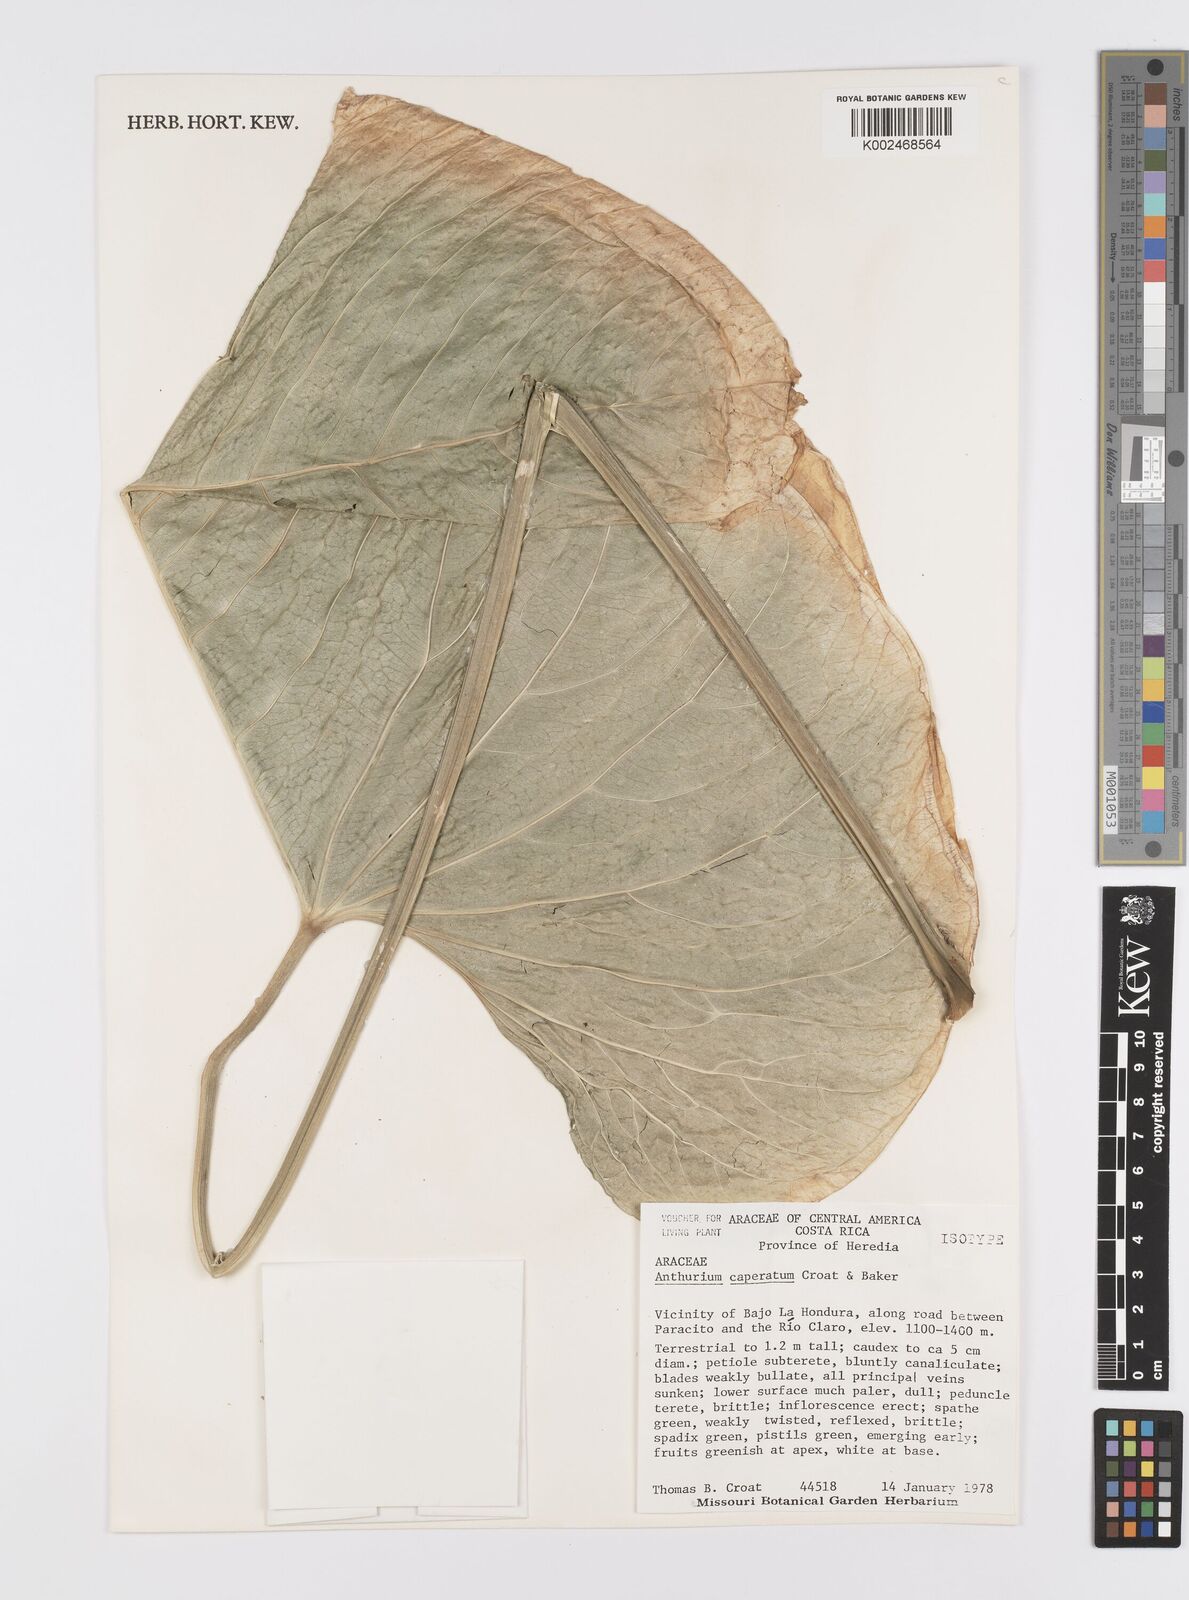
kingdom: Plantae
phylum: Tracheophyta
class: Liliopsida
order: Alismatales
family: Araceae
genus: Anthurium
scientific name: Anthurium caperatum
